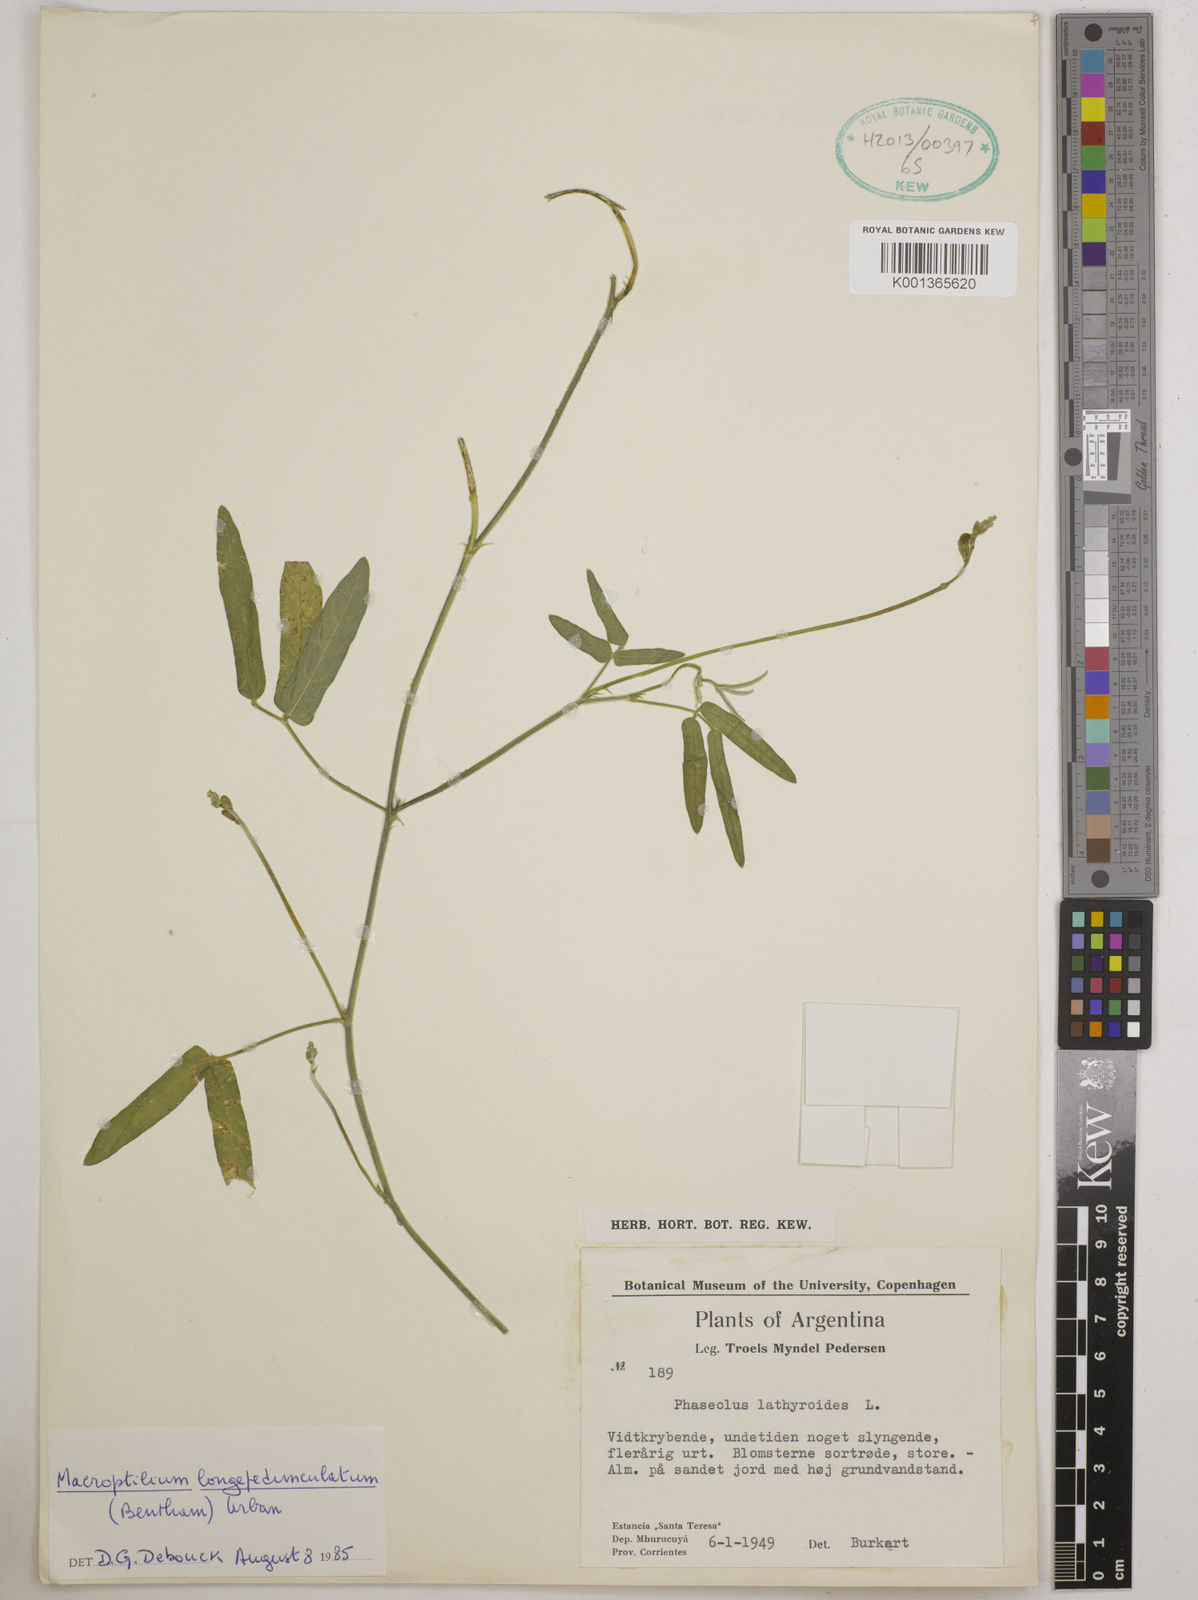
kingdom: Plantae
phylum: Tracheophyta
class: Magnoliopsida
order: Fabales
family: Fabaceae
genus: Macroptilium
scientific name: Macroptilium longepedunculatum
